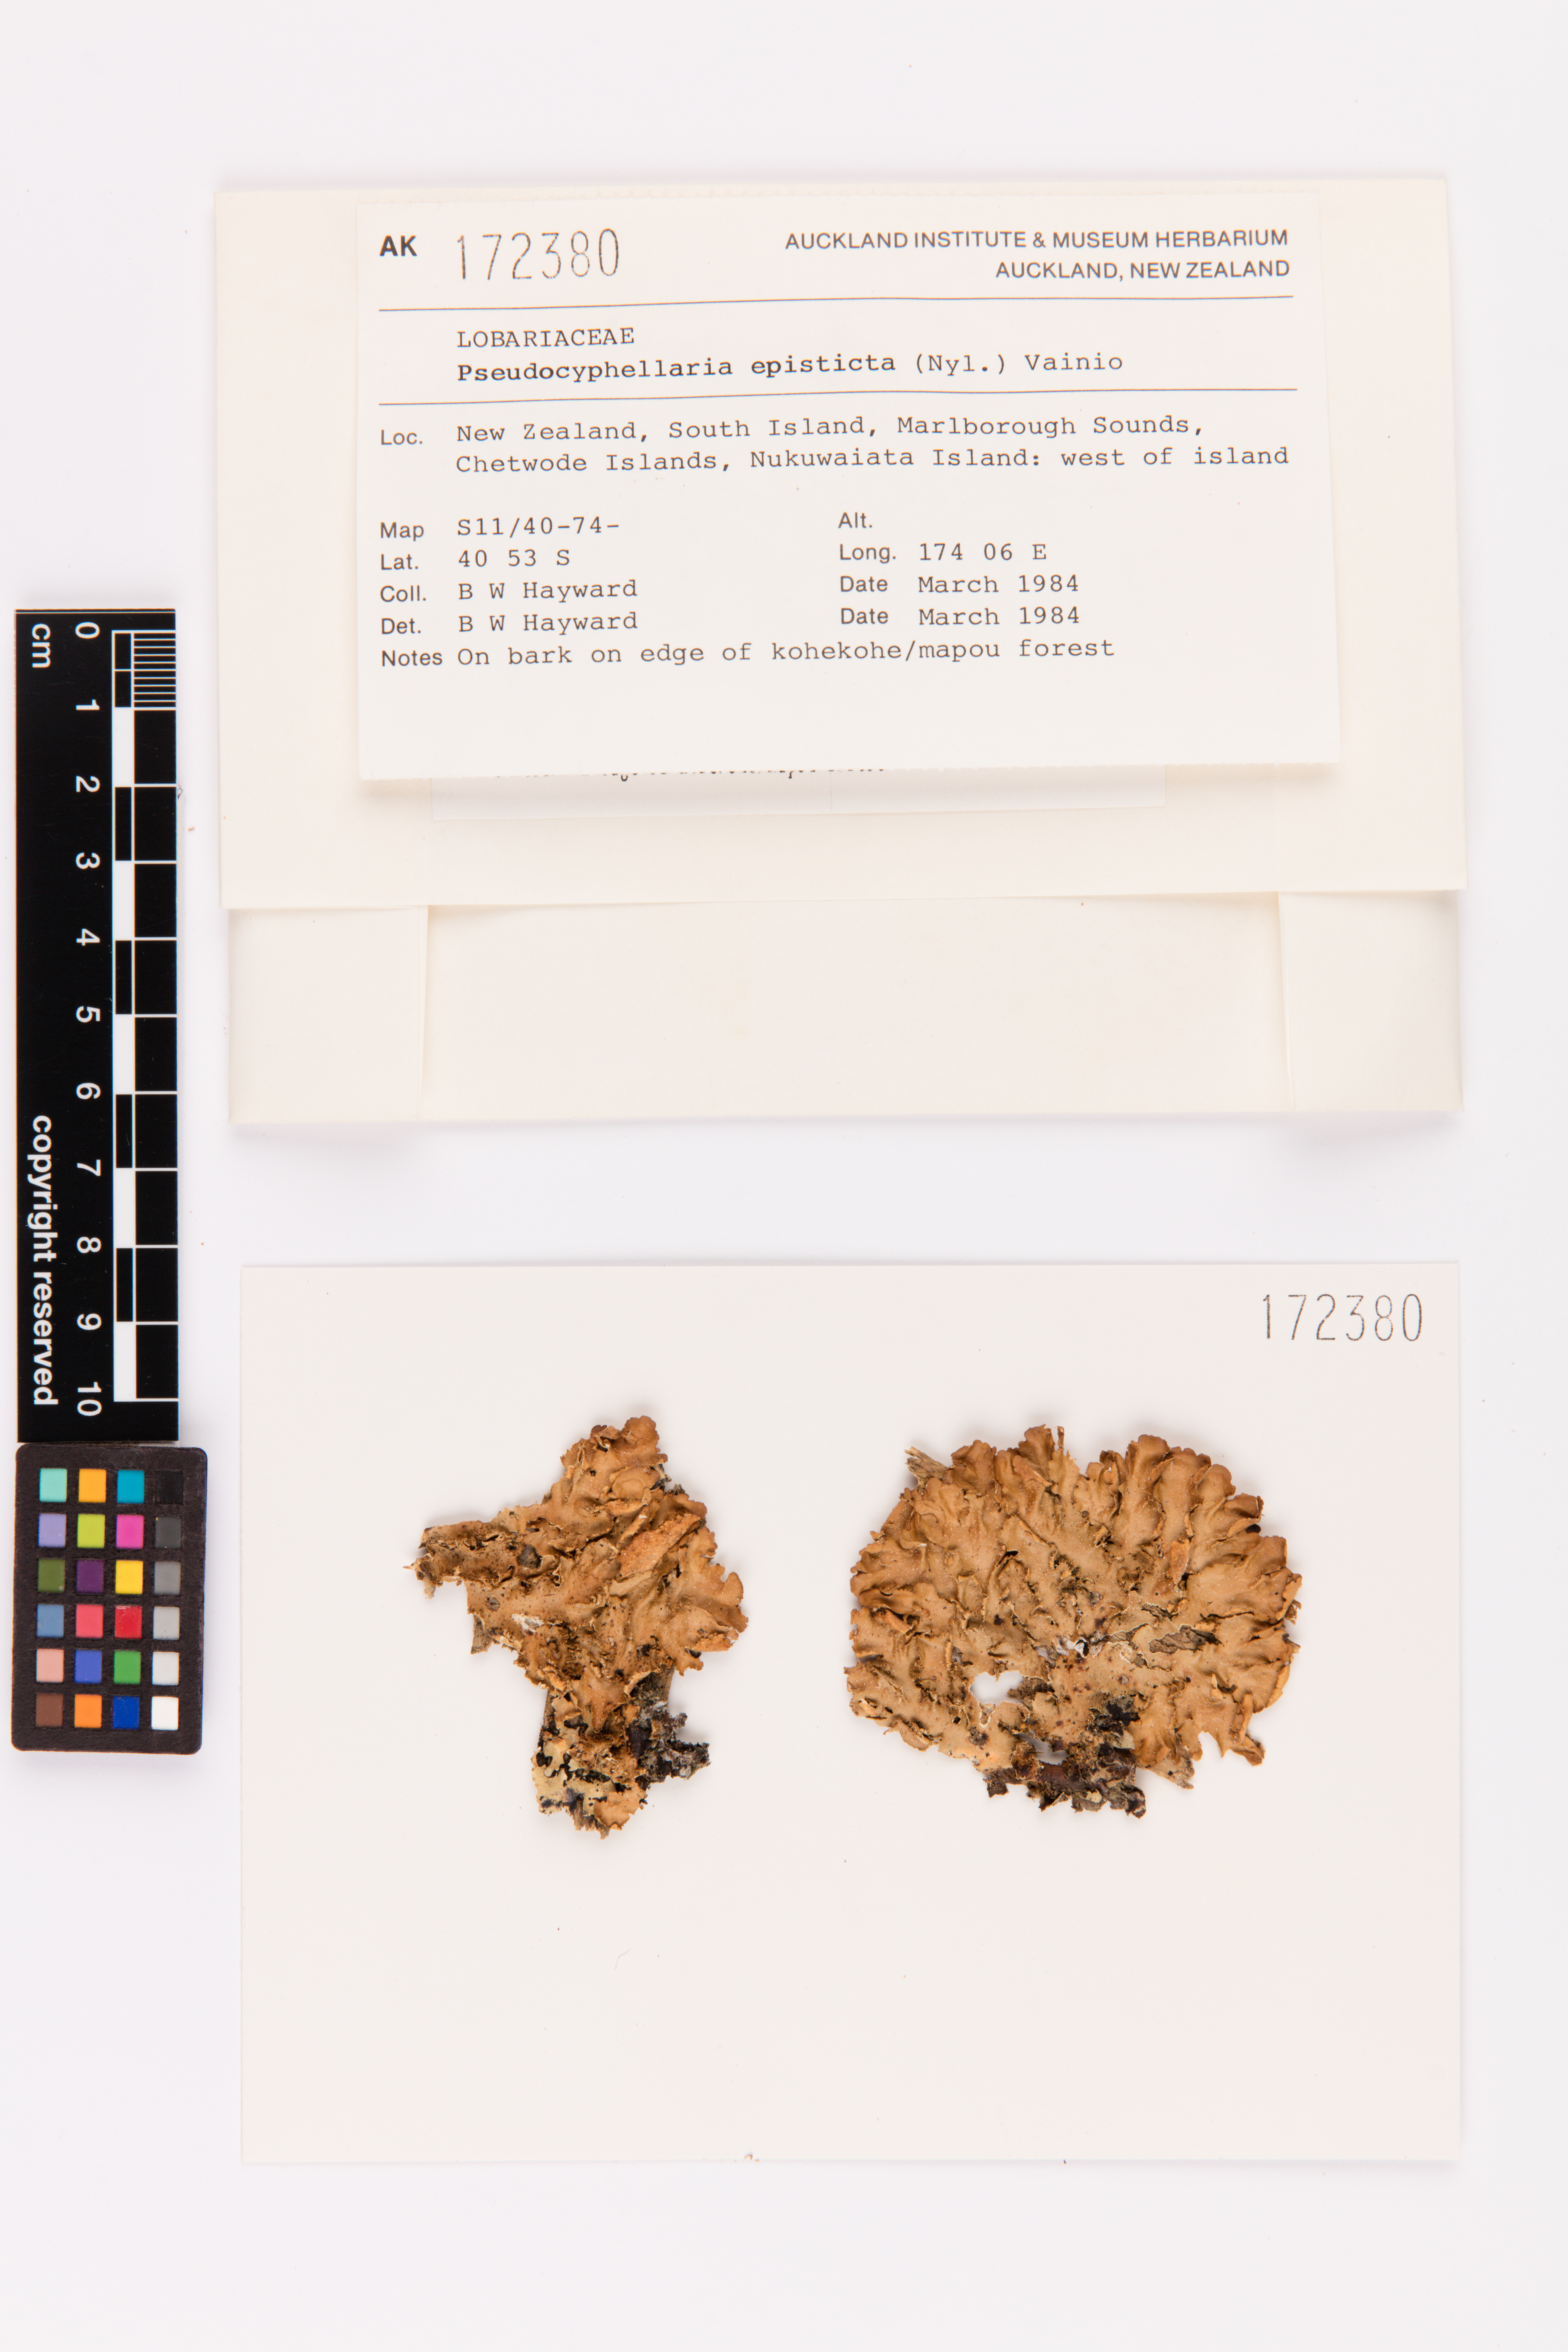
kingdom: Fungi
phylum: Ascomycota
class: Lecanoromycetes
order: Peltigerales
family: Lobariaceae
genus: Pseudocyphellaria
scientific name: Pseudocyphellaria episticta
